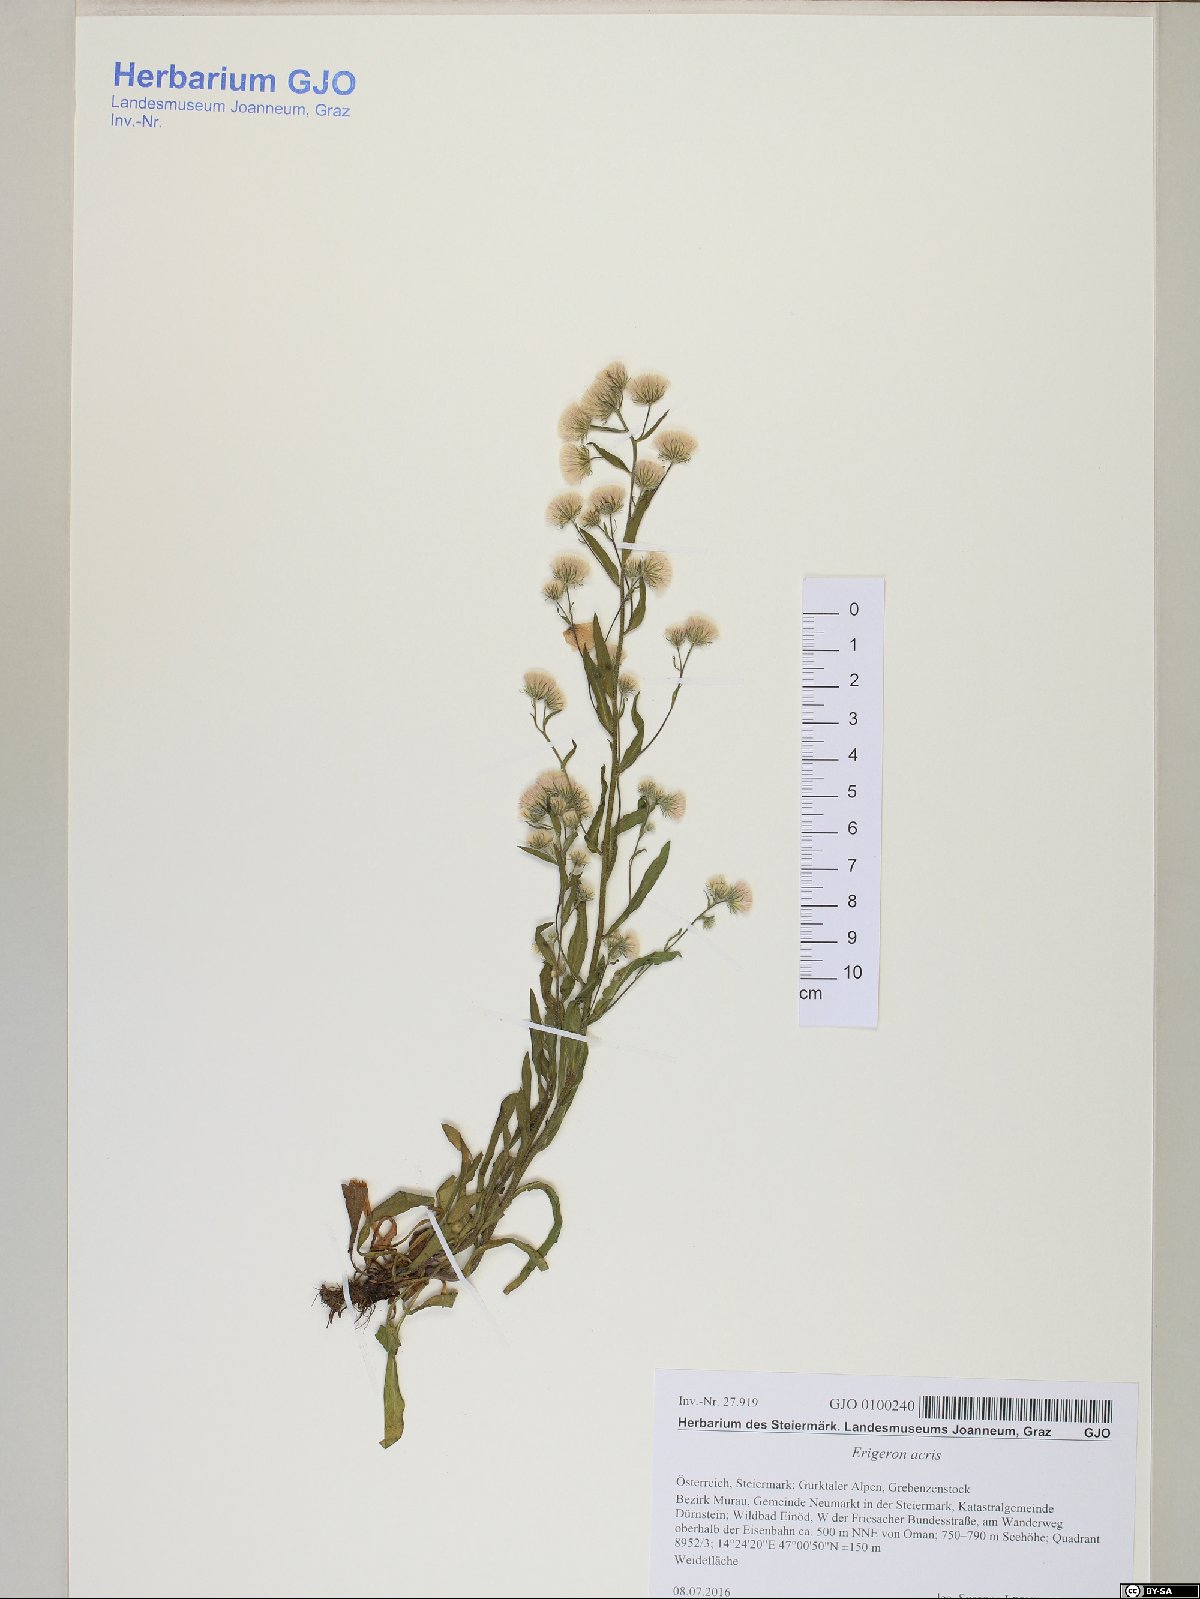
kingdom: Plantae
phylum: Tracheophyta
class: Magnoliopsida
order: Asterales
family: Asteraceae
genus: Erigeron
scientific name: Erigeron acris
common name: Blue fleabane
